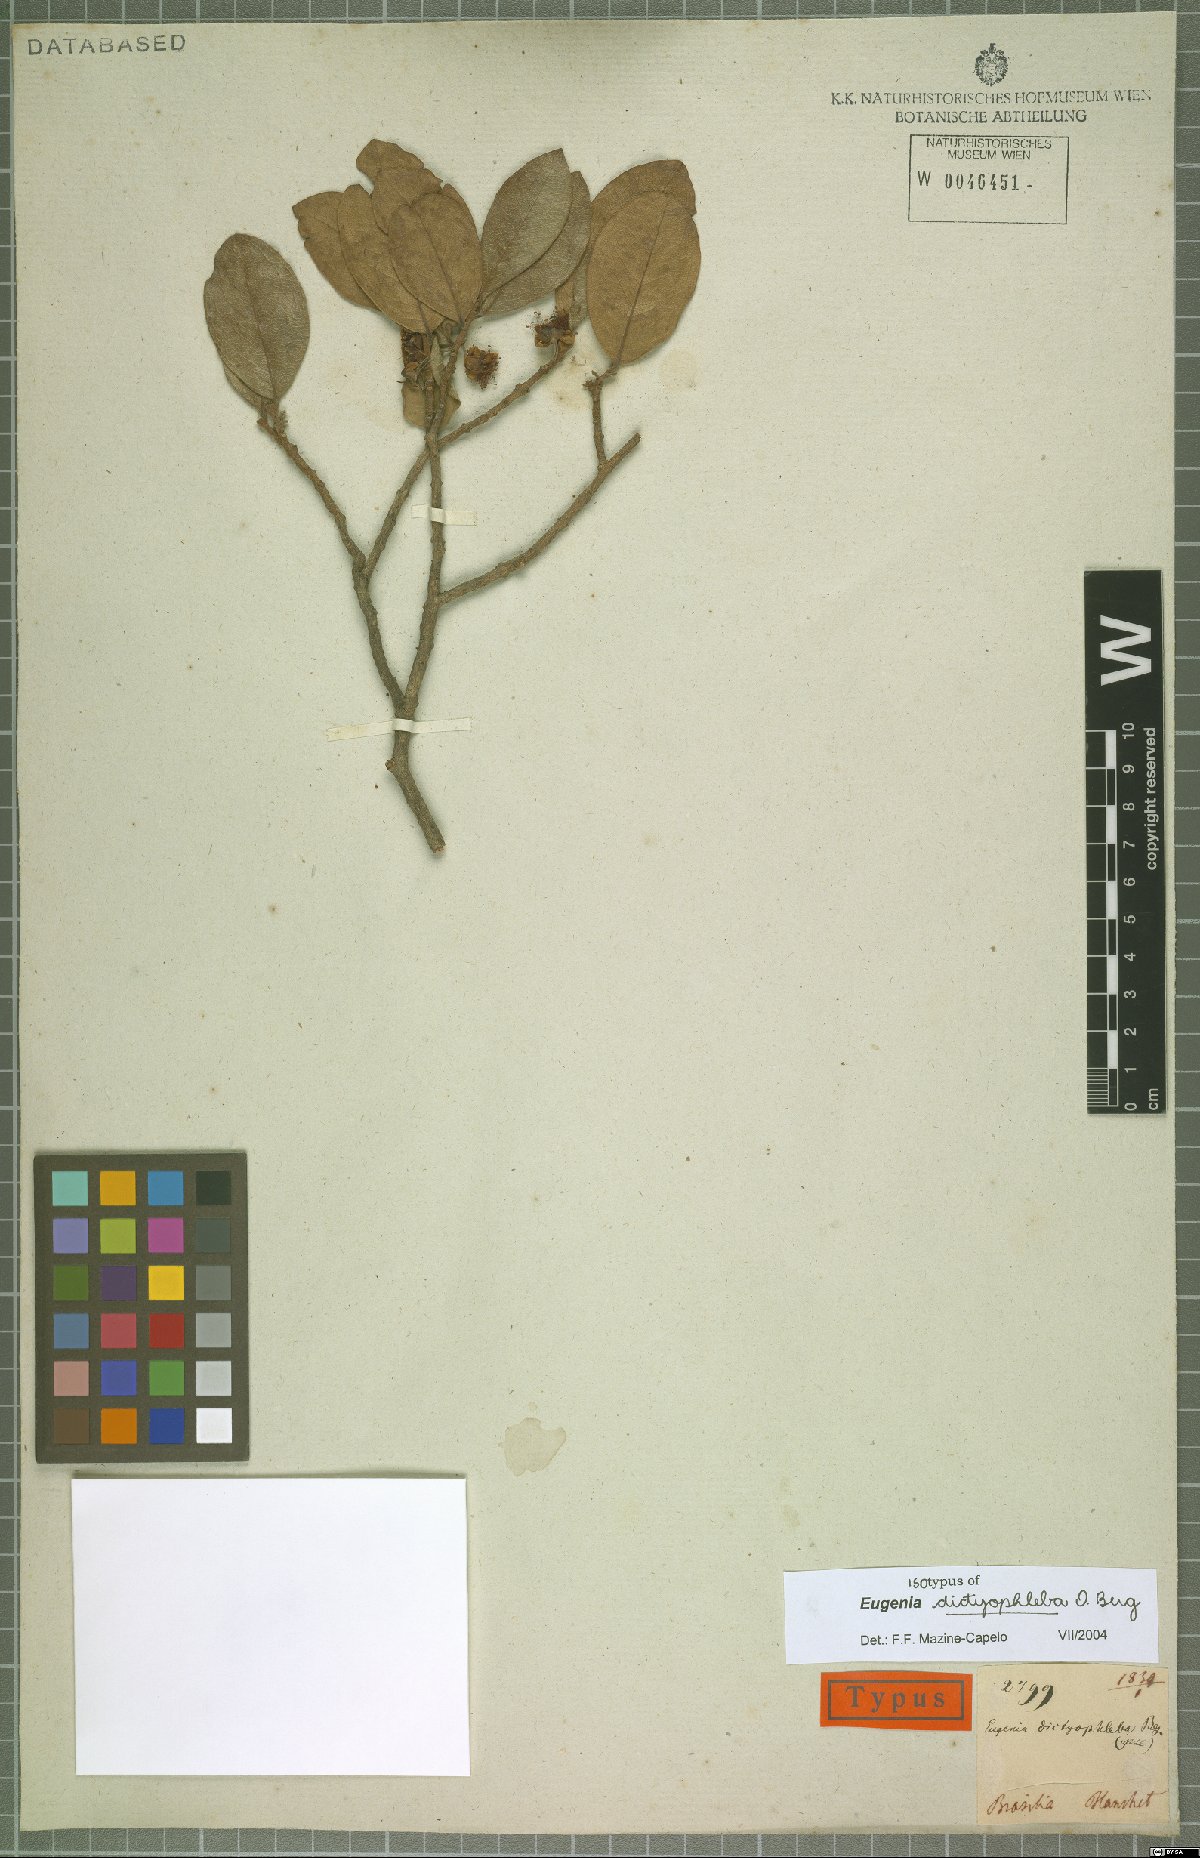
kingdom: Plantae
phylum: Tracheophyta
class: Magnoliopsida
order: Myrtales
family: Myrtaceae
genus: Eugenia
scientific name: Eugenia dictyophleba
